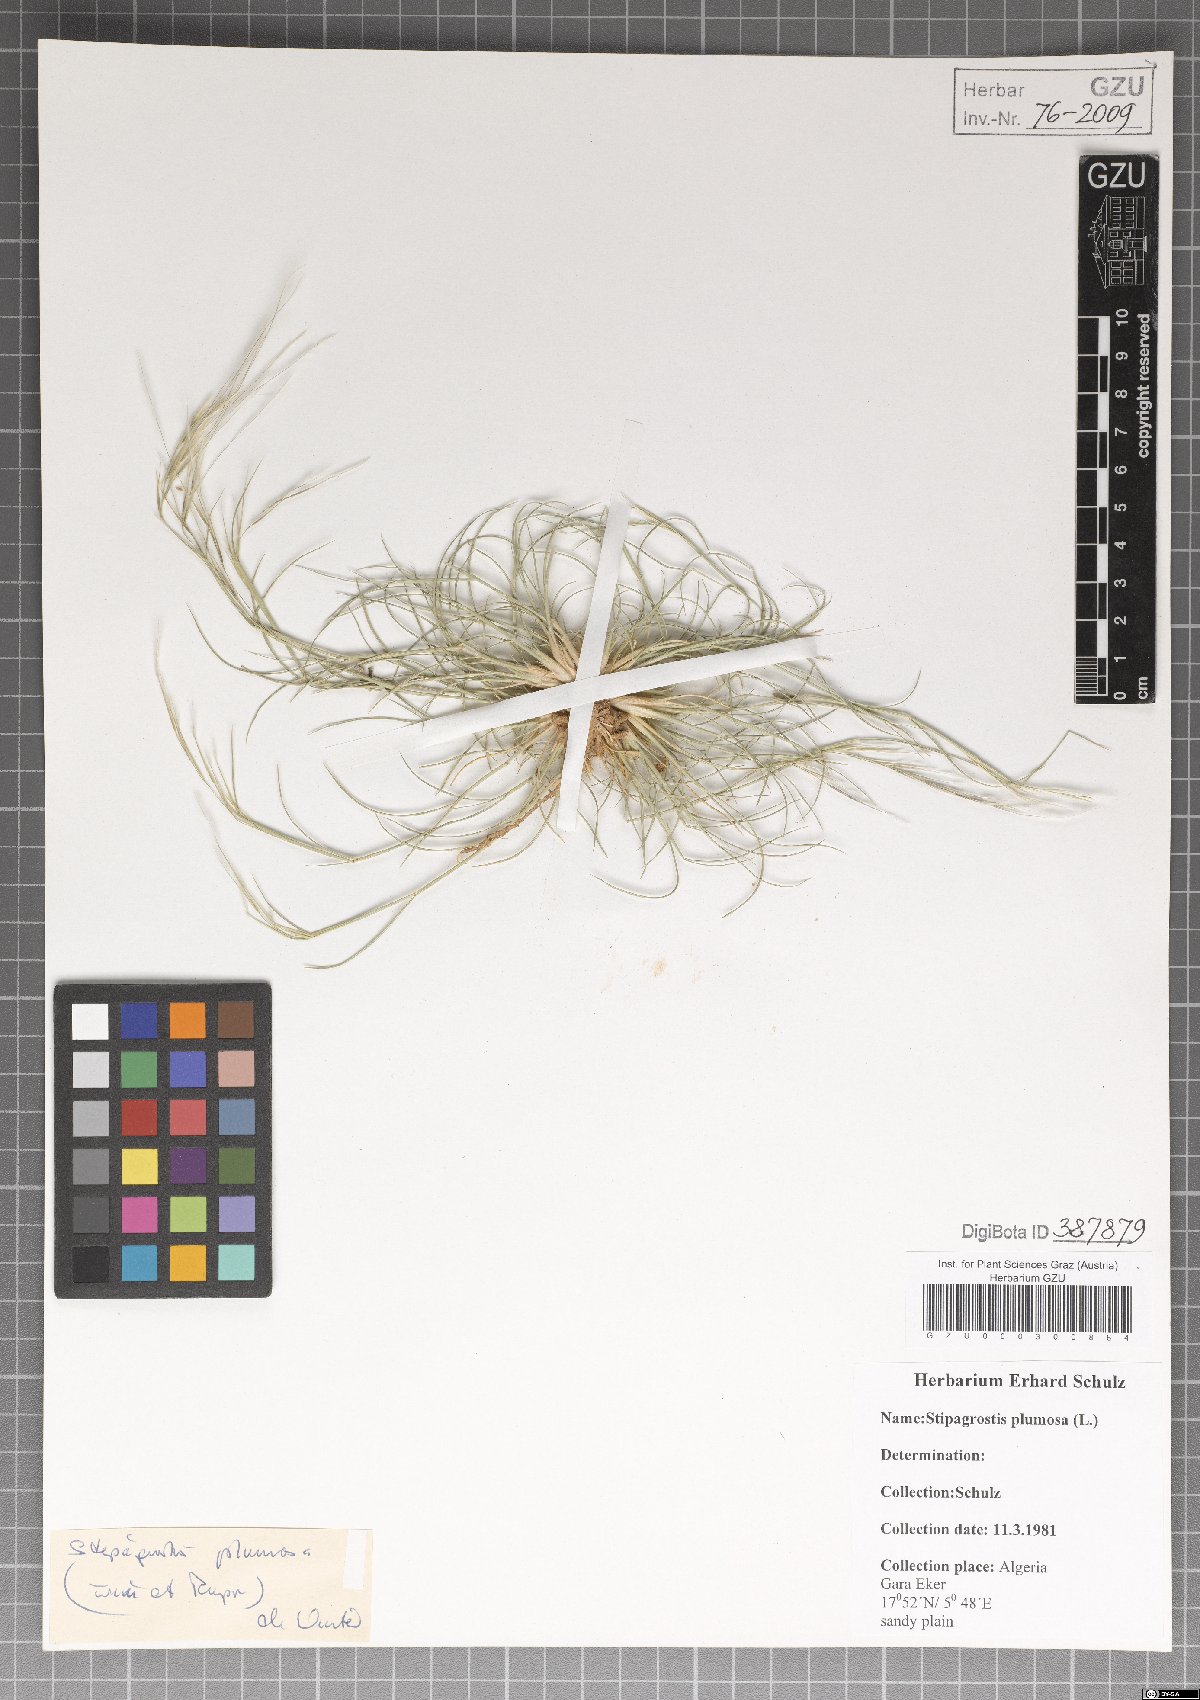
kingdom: Plantae
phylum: Tracheophyta
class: Liliopsida
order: Poales
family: Poaceae
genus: Stipagrostis
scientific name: Stipagrostis plumosa
